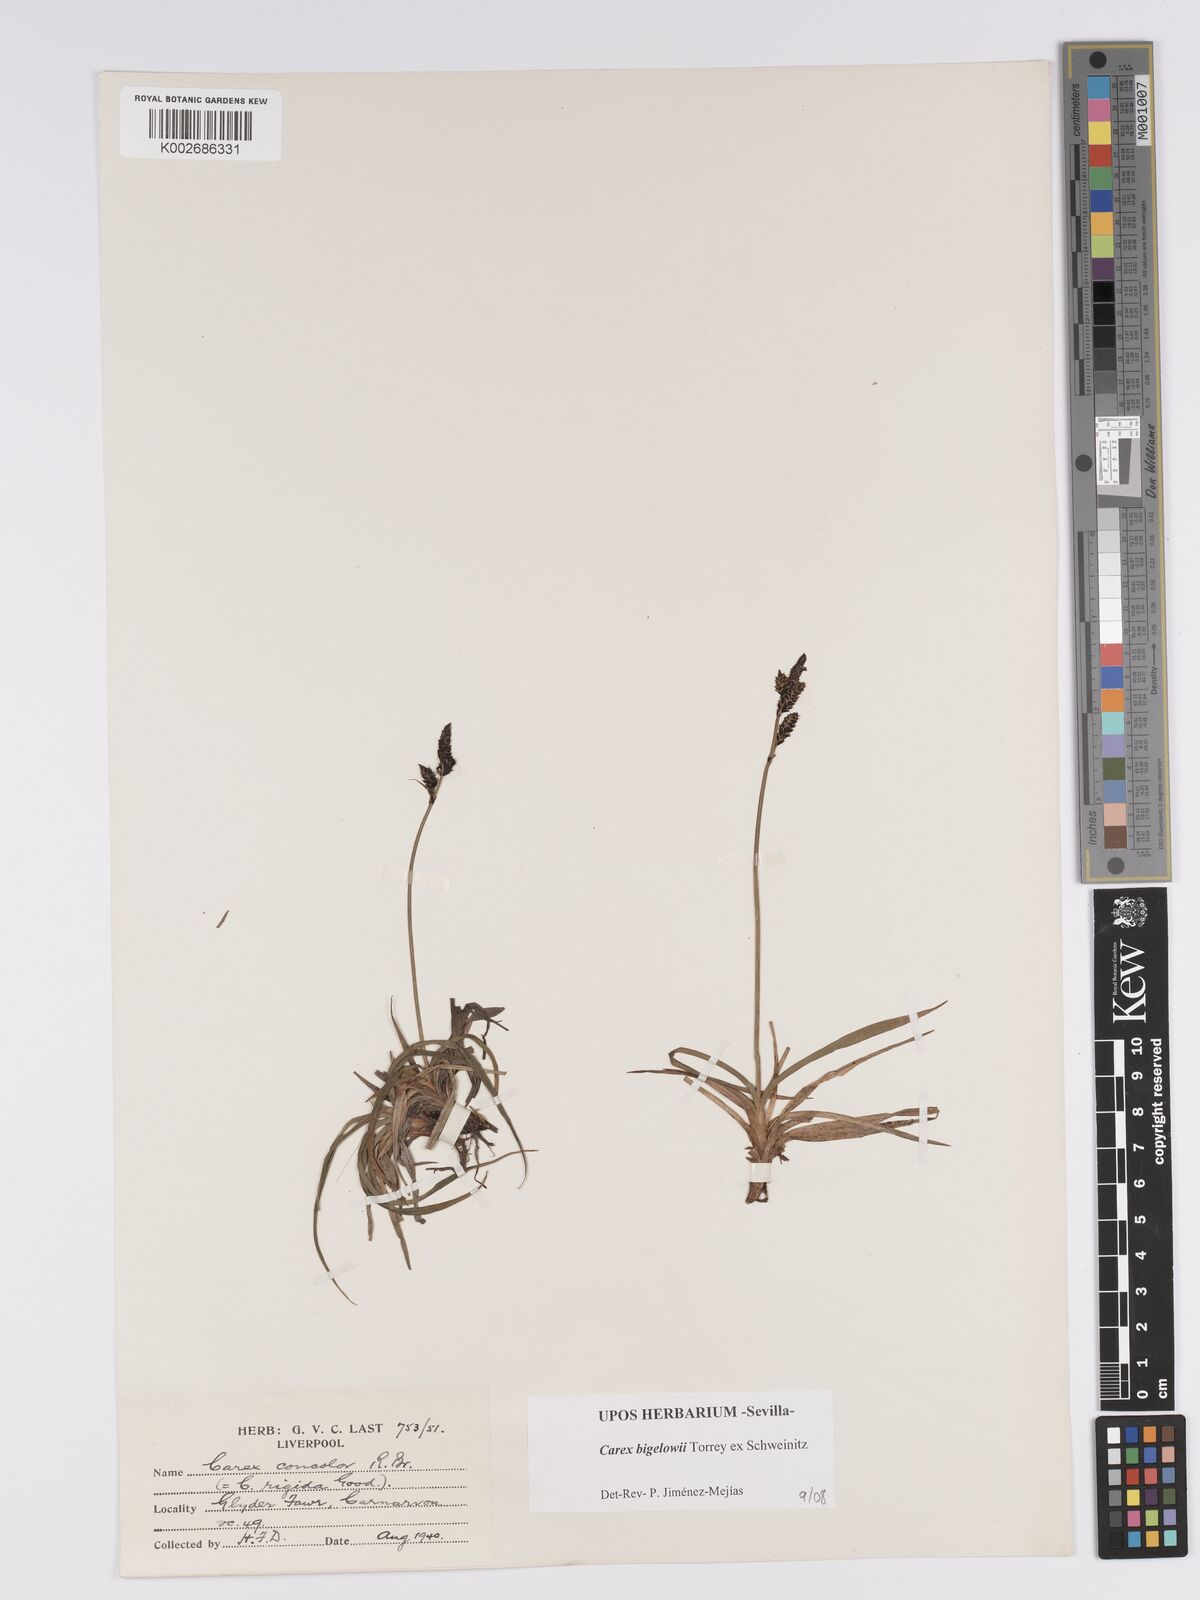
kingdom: Plantae
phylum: Tracheophyta
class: Liliopsida
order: Poales
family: Cyperaceae
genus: Carex
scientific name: Carex bigelowii
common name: Stiff sedge
